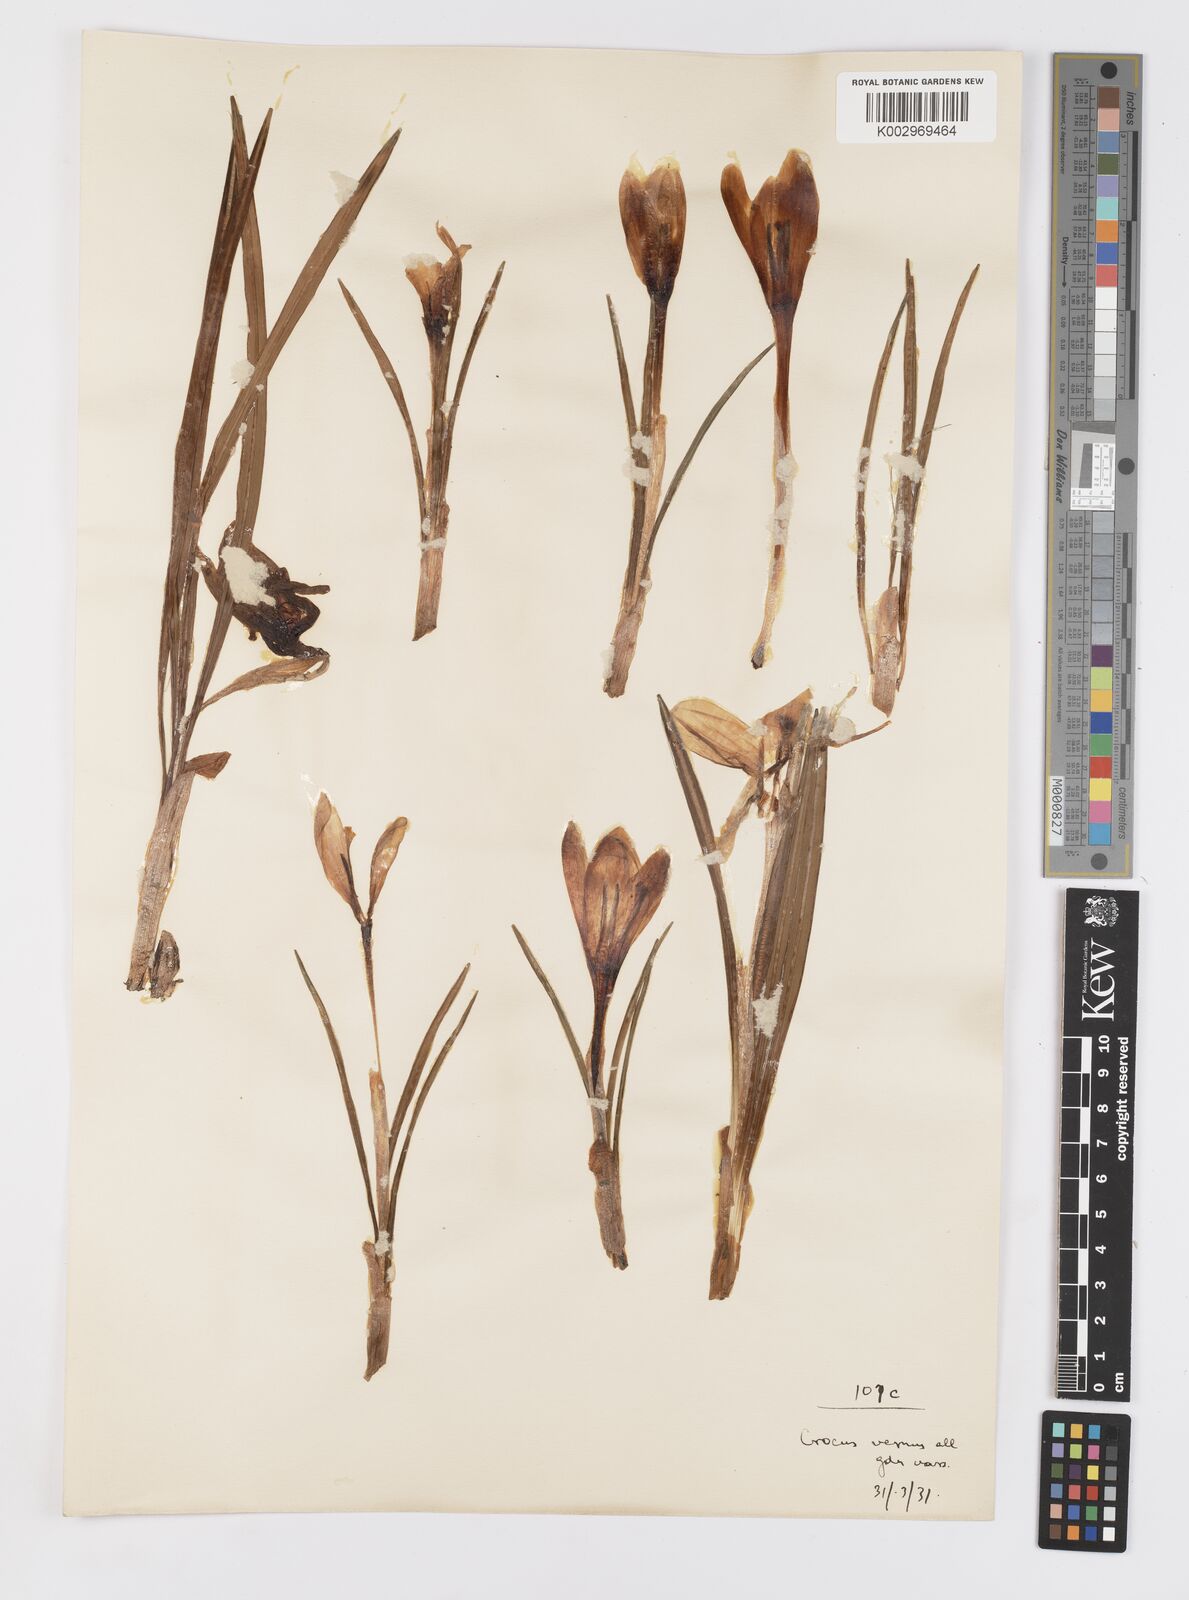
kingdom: Plantae
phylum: Tracheophyta
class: Liliopsida
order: Asparagales
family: Iridaceae
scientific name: Iridaceae
